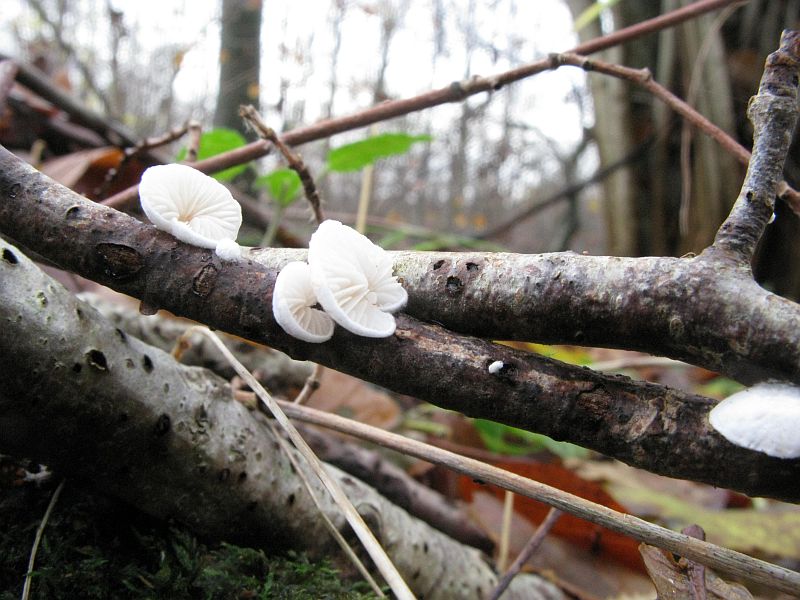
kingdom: Fungi
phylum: Basidiomycota
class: Agaricomycetes
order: Agaricales
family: Crepidotaceae
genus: Crepidotus
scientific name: Crepidotus cesatii
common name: almindelig muslingesvamp
